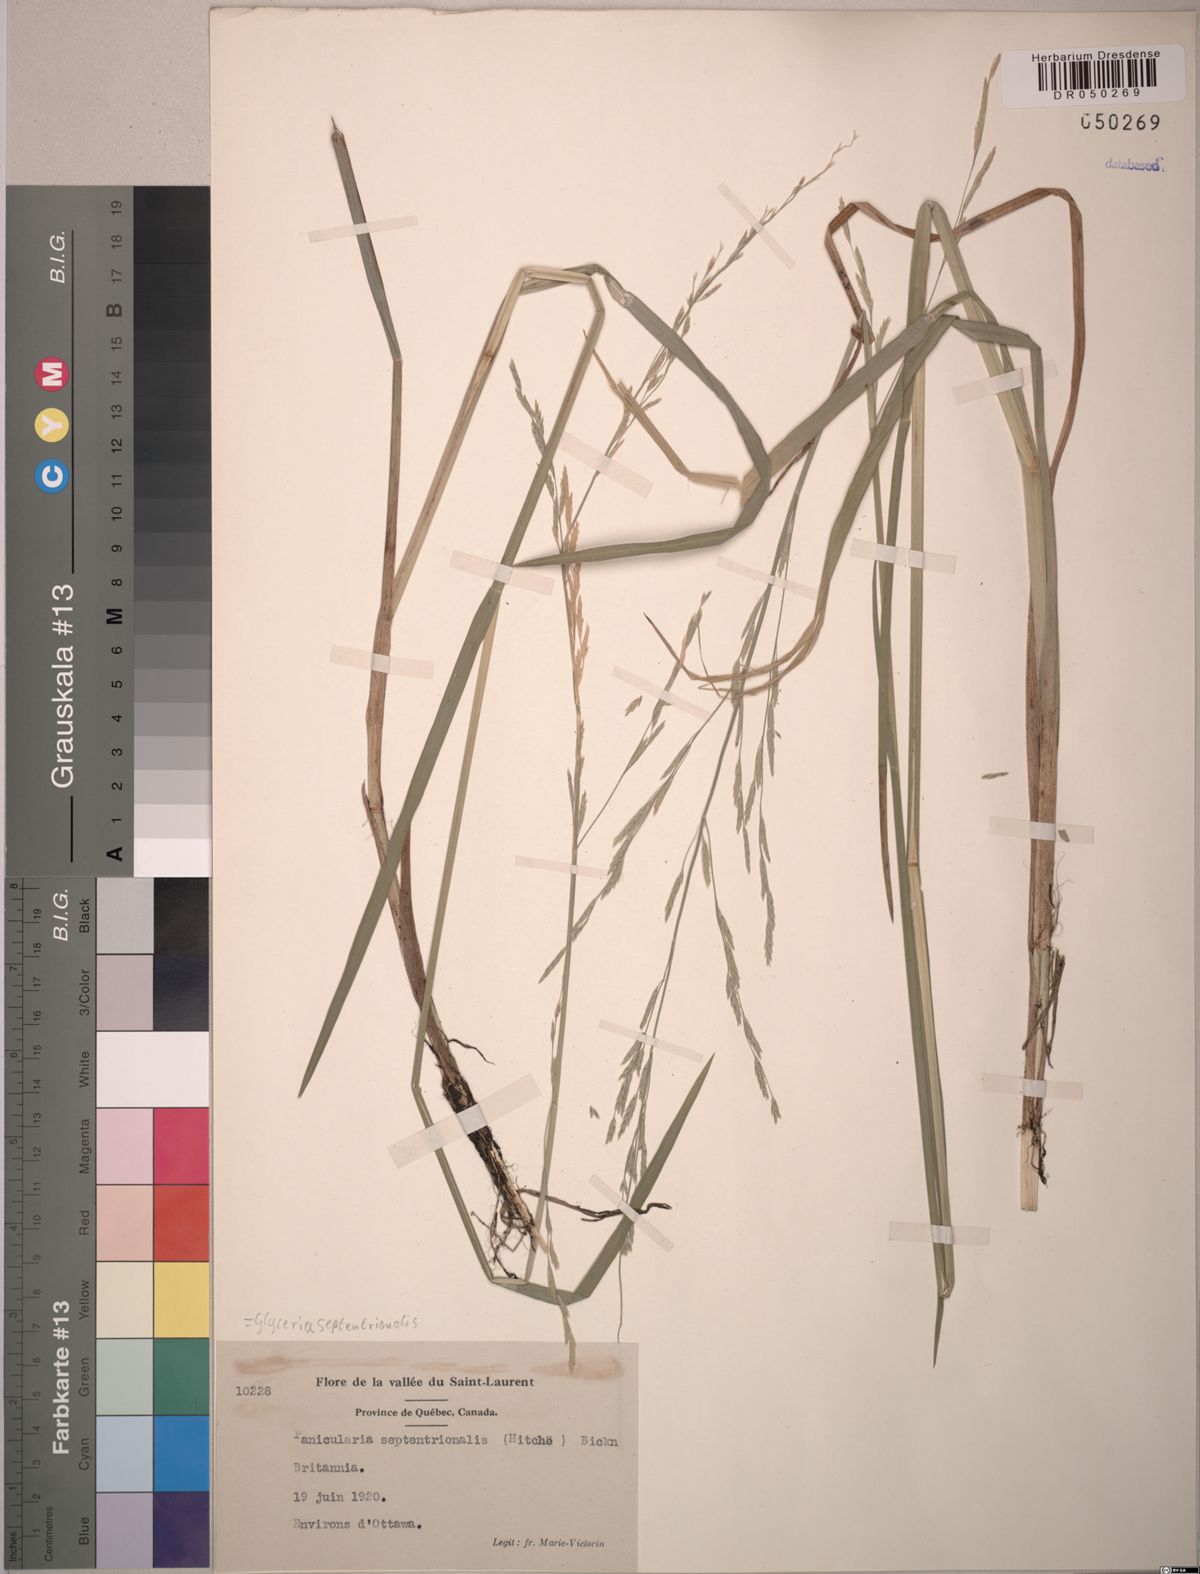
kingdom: Plantae
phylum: Tracheophyta
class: Liliopsida
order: Poales
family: Poaceae
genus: Glyceria
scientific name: Glyceria septentrionalis
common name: Eastern mannagrass
